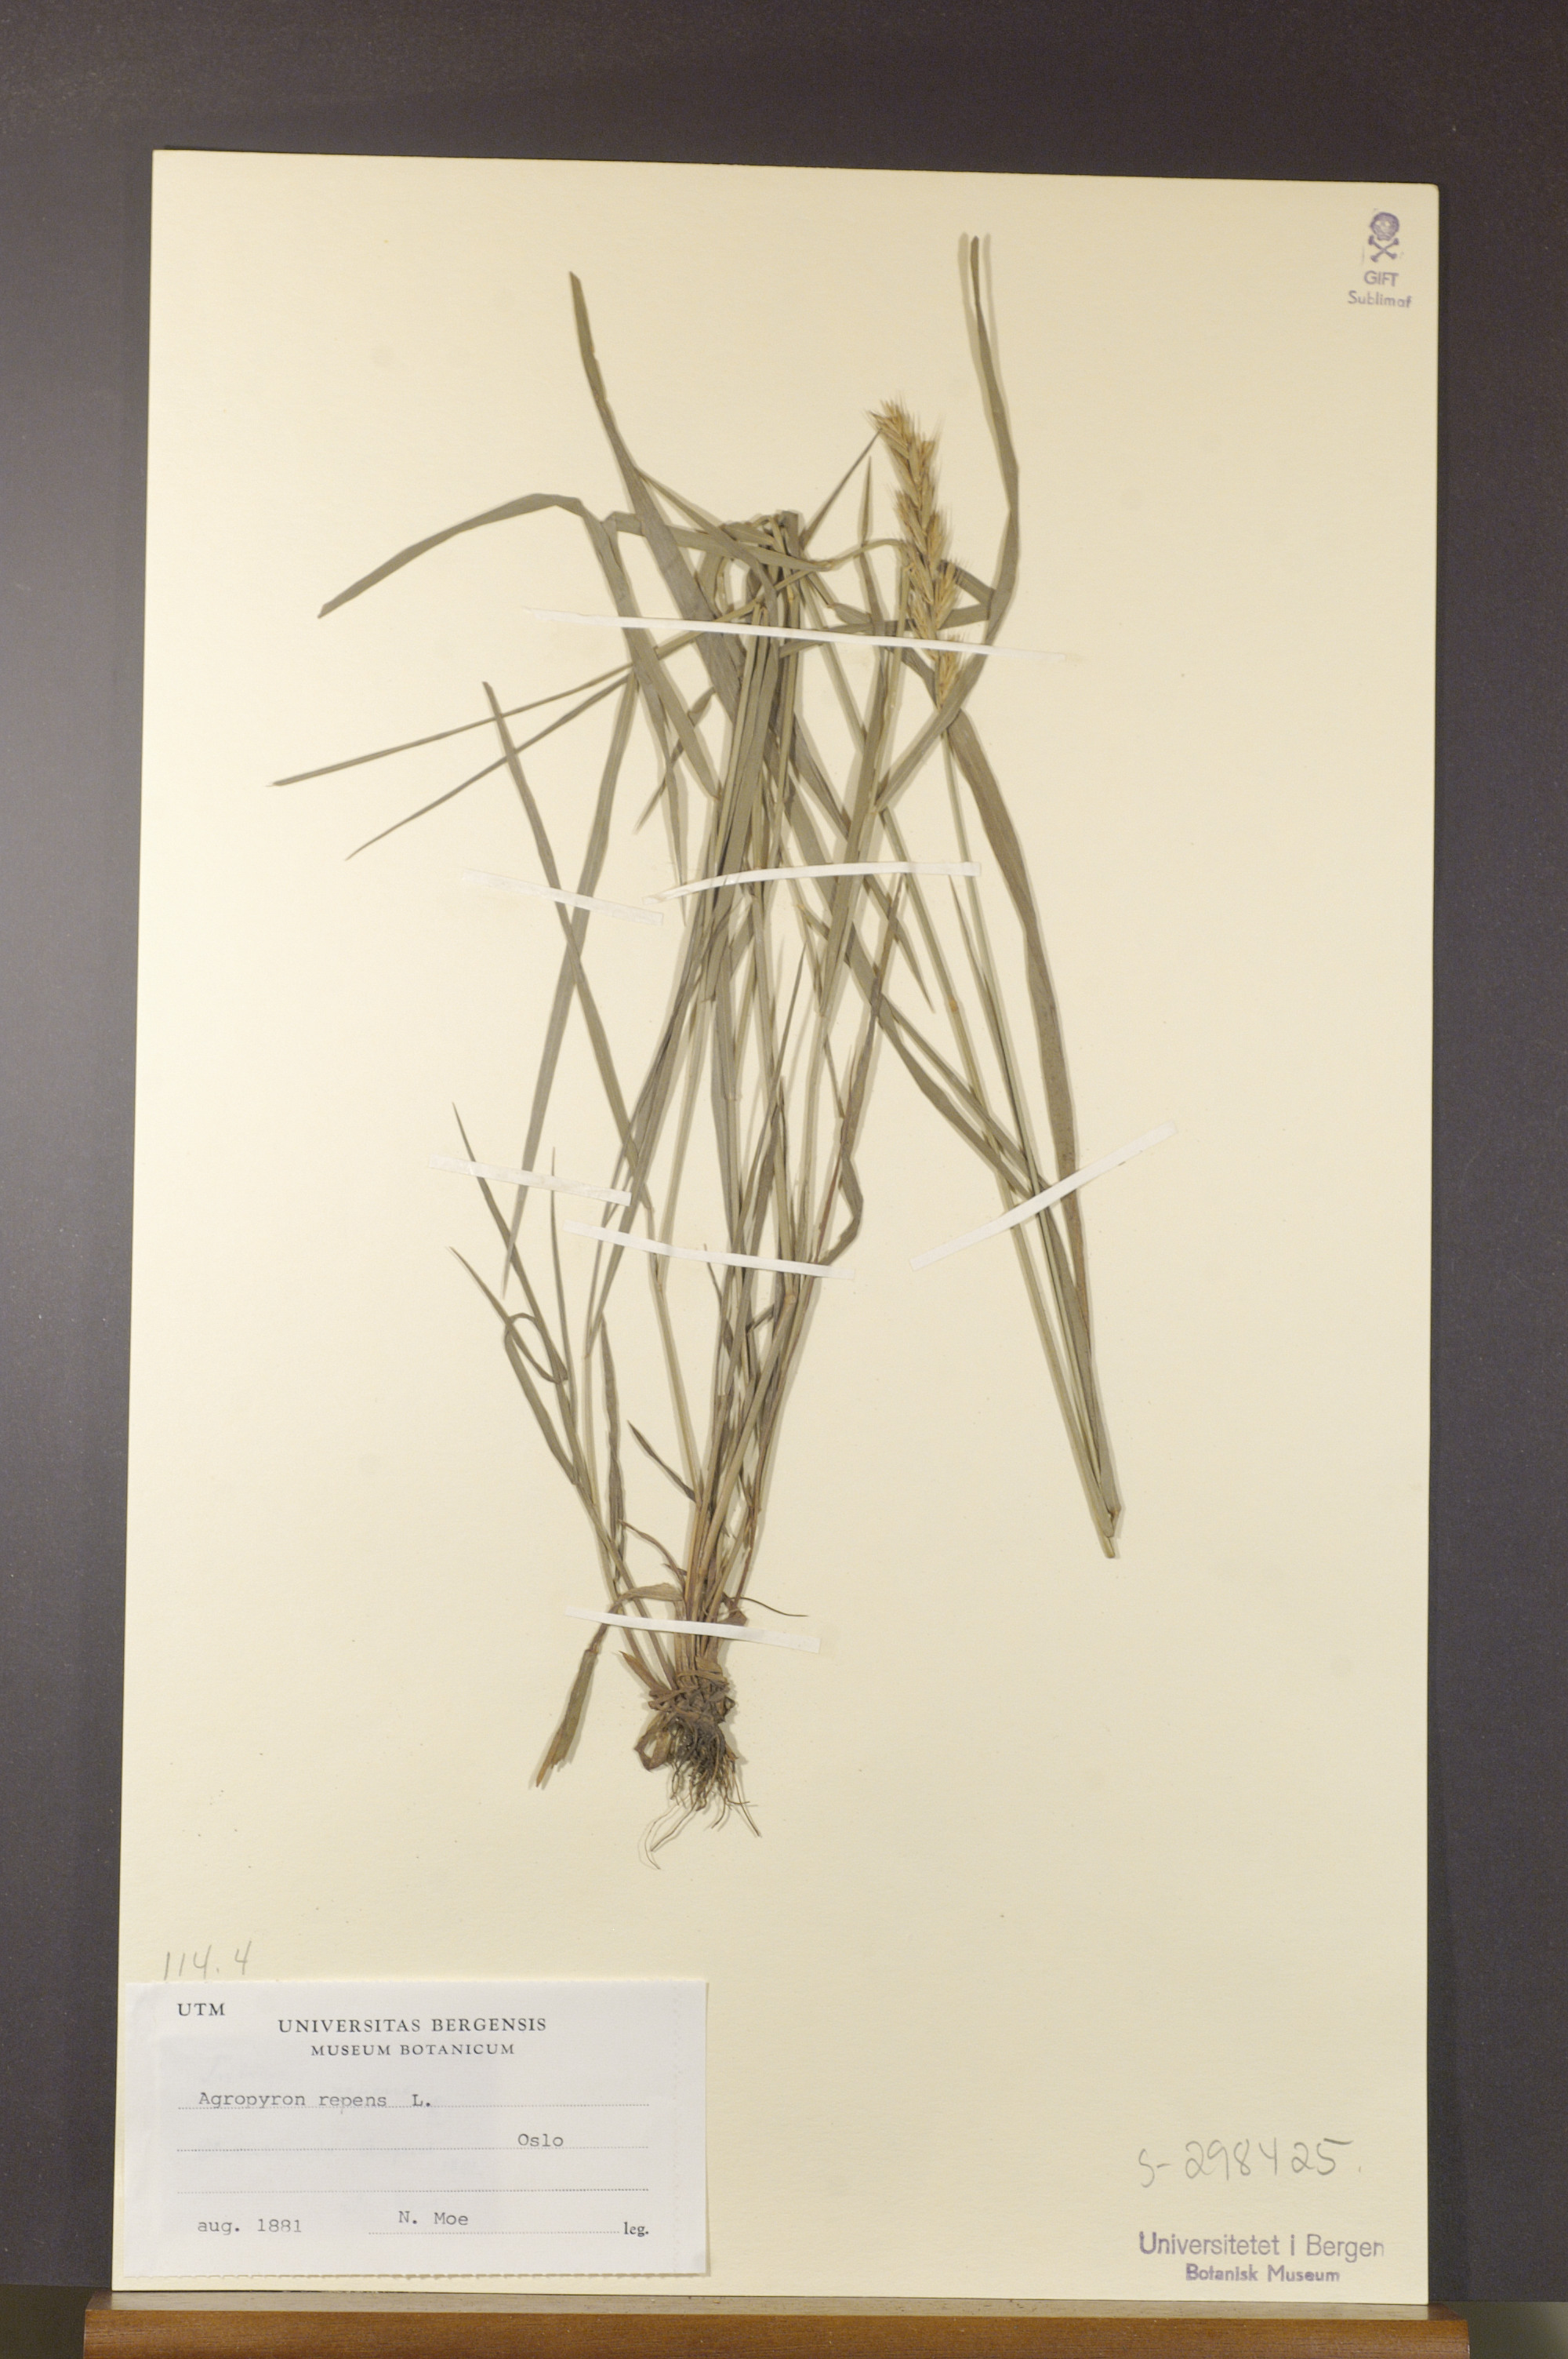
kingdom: Plantae
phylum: Tracheophyta
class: Liliopsida
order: Poales
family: Poaceae
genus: Elymus
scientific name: Elymus repens
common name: Quackgrass
